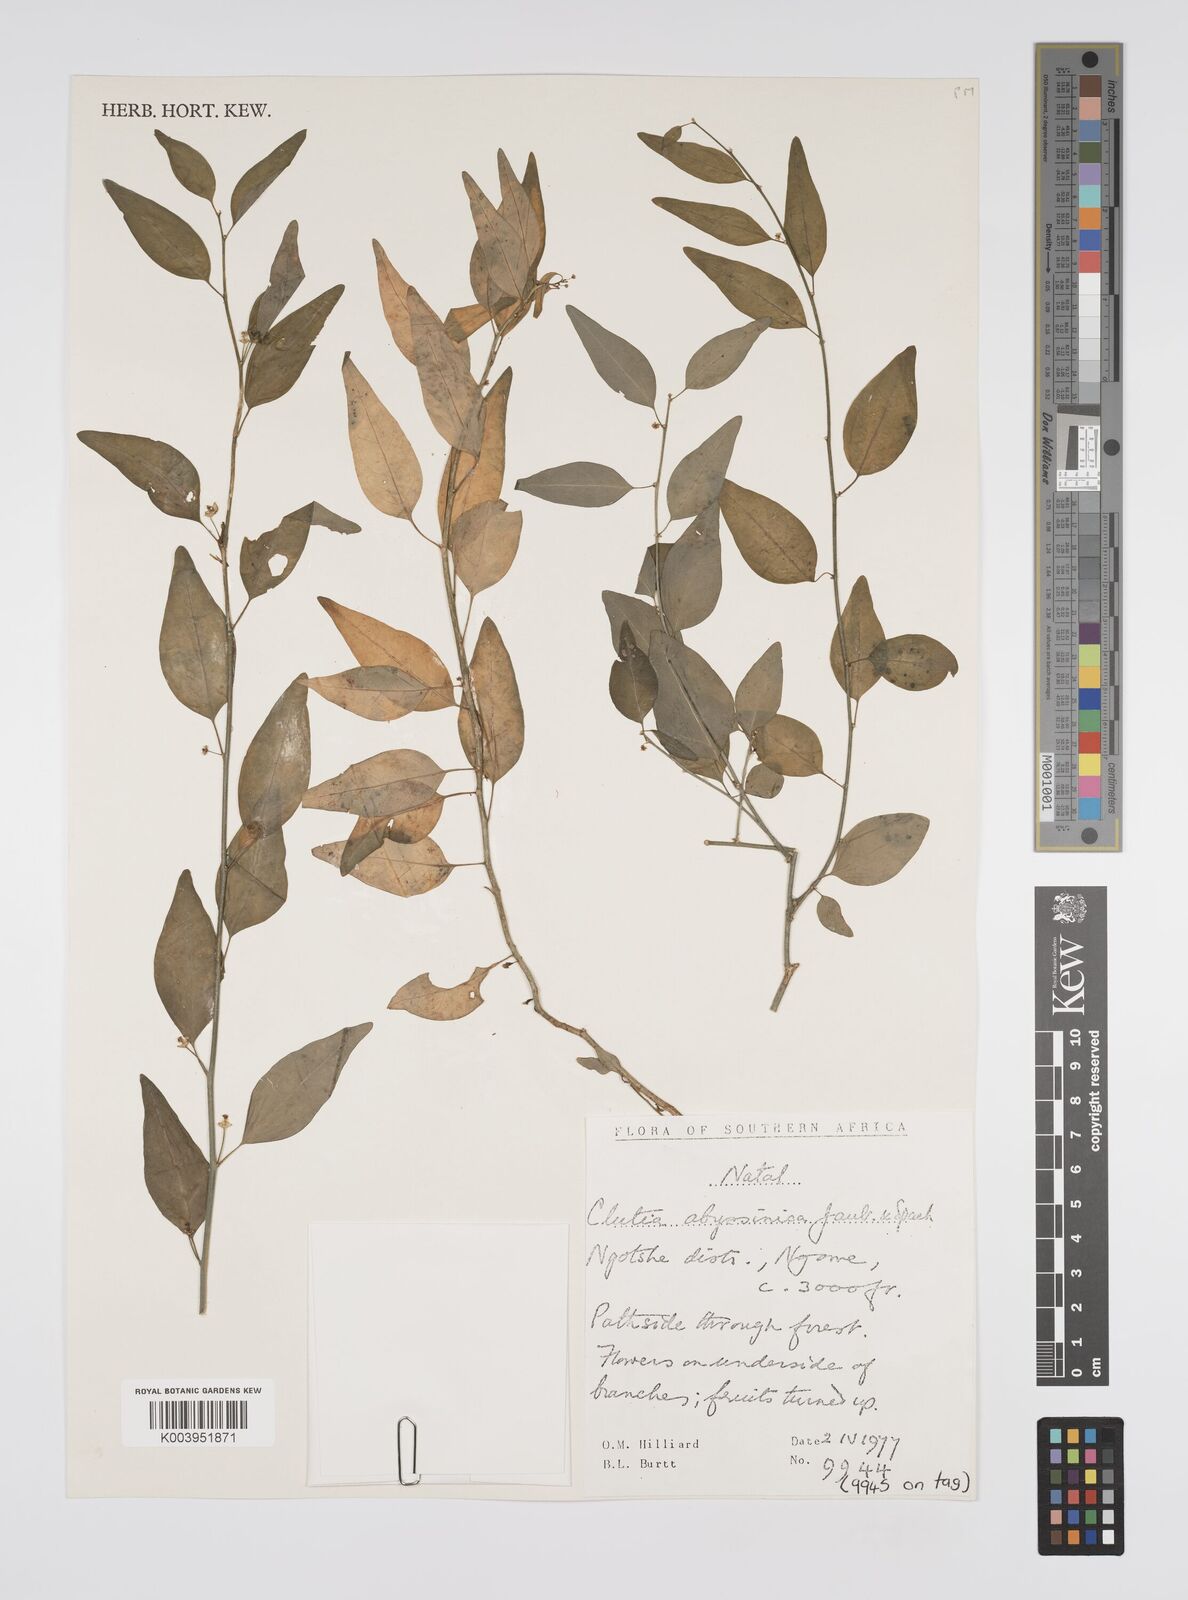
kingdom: Plantae
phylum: Tracheophyta
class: Magnoliopsida
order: Malpighiales
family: Peraceae
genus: Clutia
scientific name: Clutia
